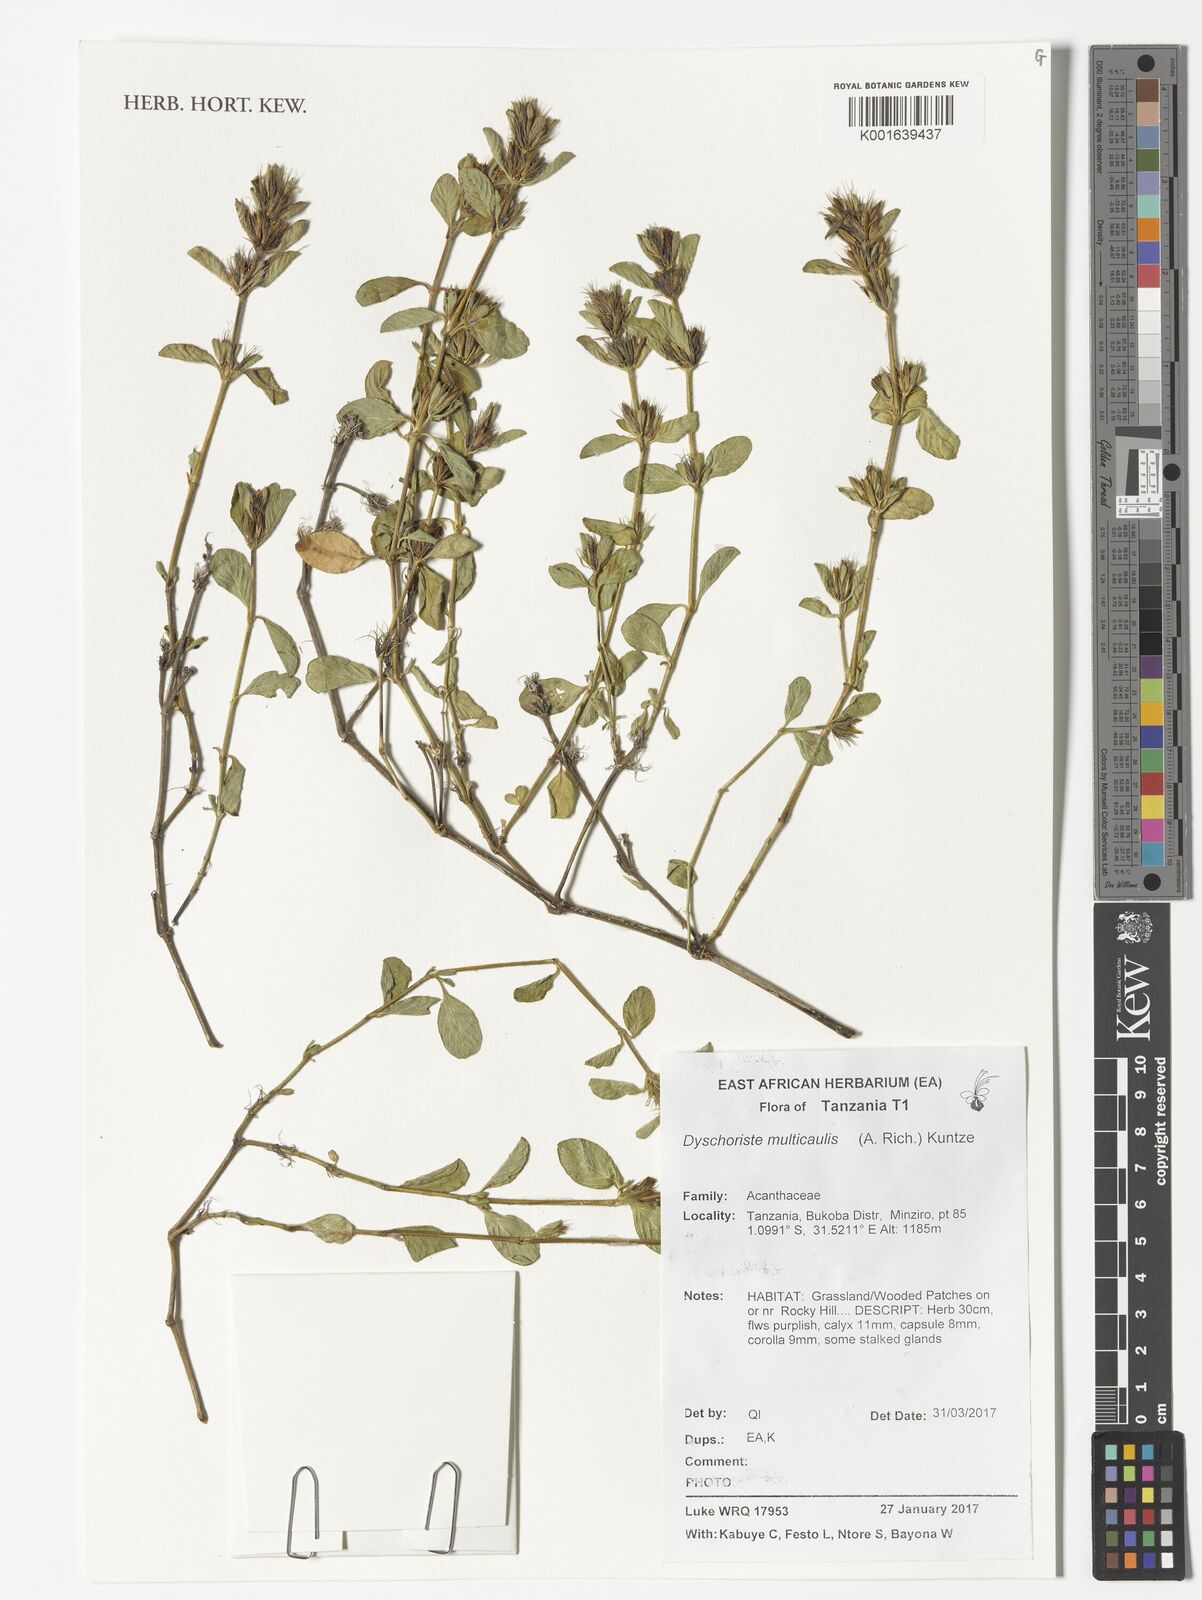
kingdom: Plantae
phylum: Tracheophyta
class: Magnoliopsida
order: Lamiales
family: Acanthaceae
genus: Dyschoriste
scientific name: Dyschoriste multicaulis
